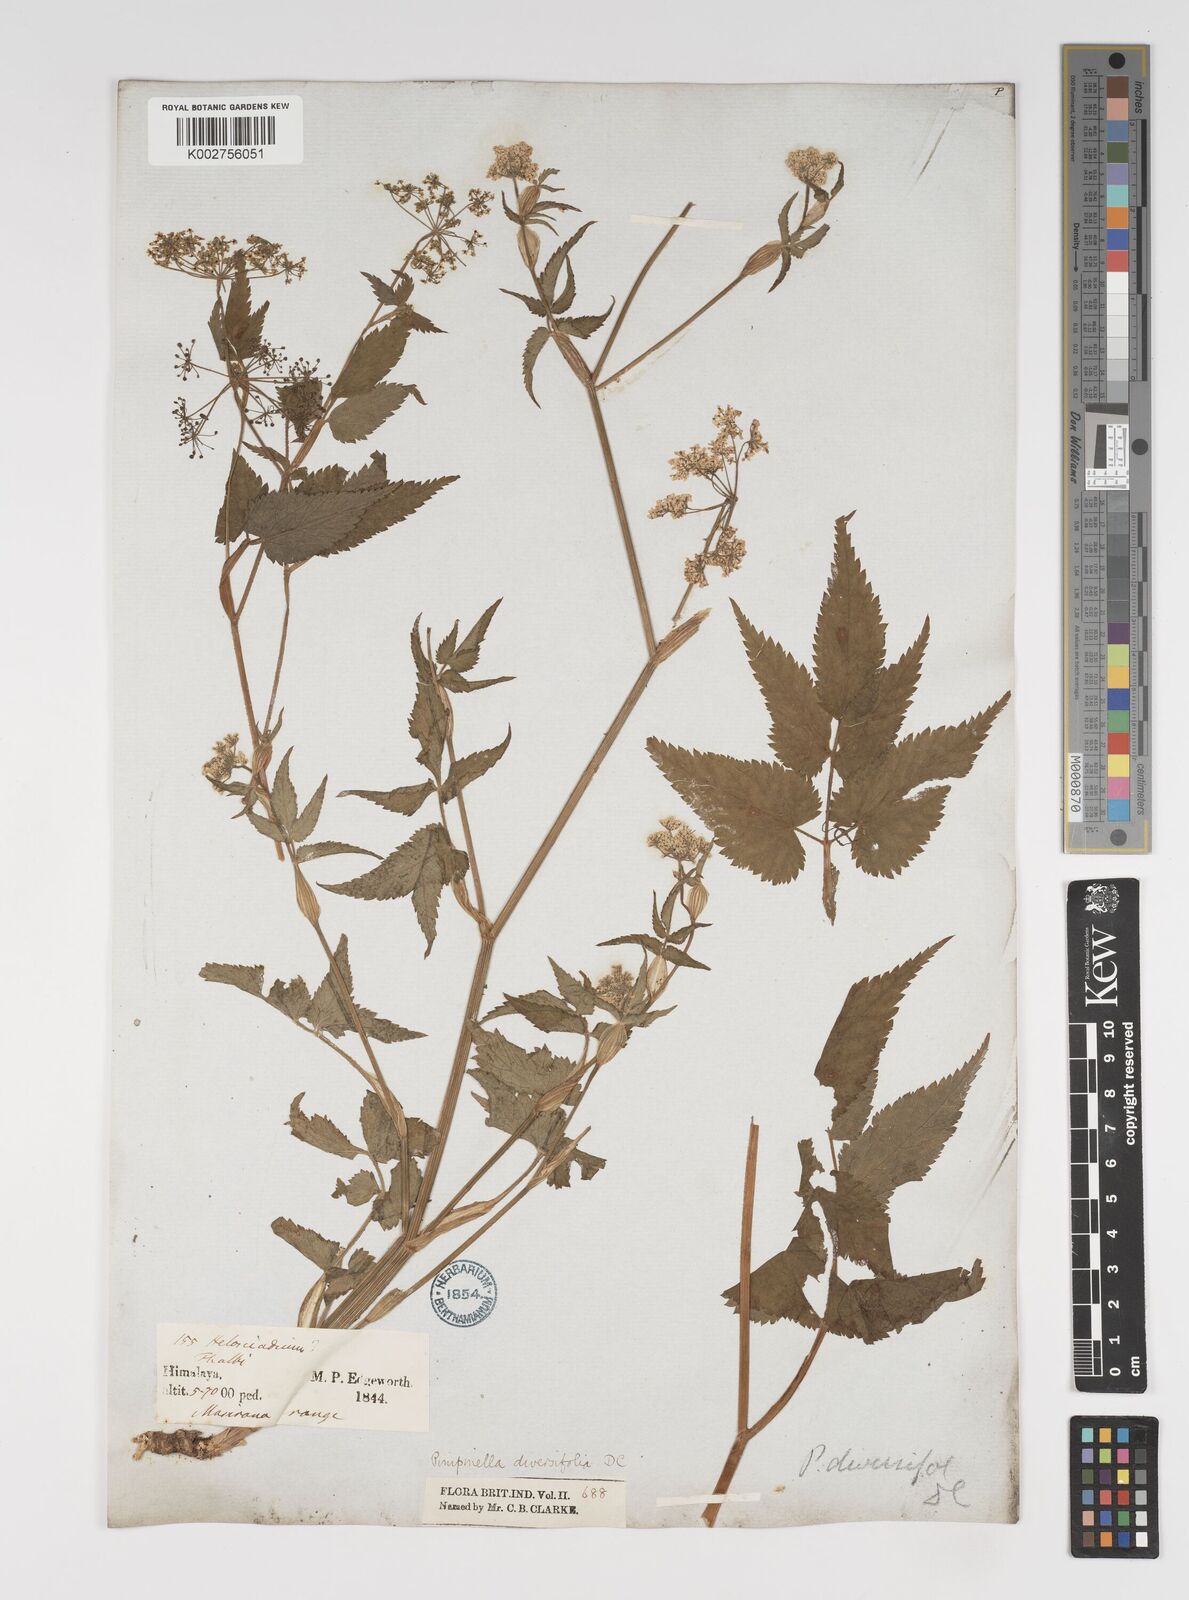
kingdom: Plantae
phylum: Tracheophyta
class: Magnoliopsida
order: Apiales
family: Apiaceae
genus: Pimpinella
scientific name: Pimpinella diversifolia
